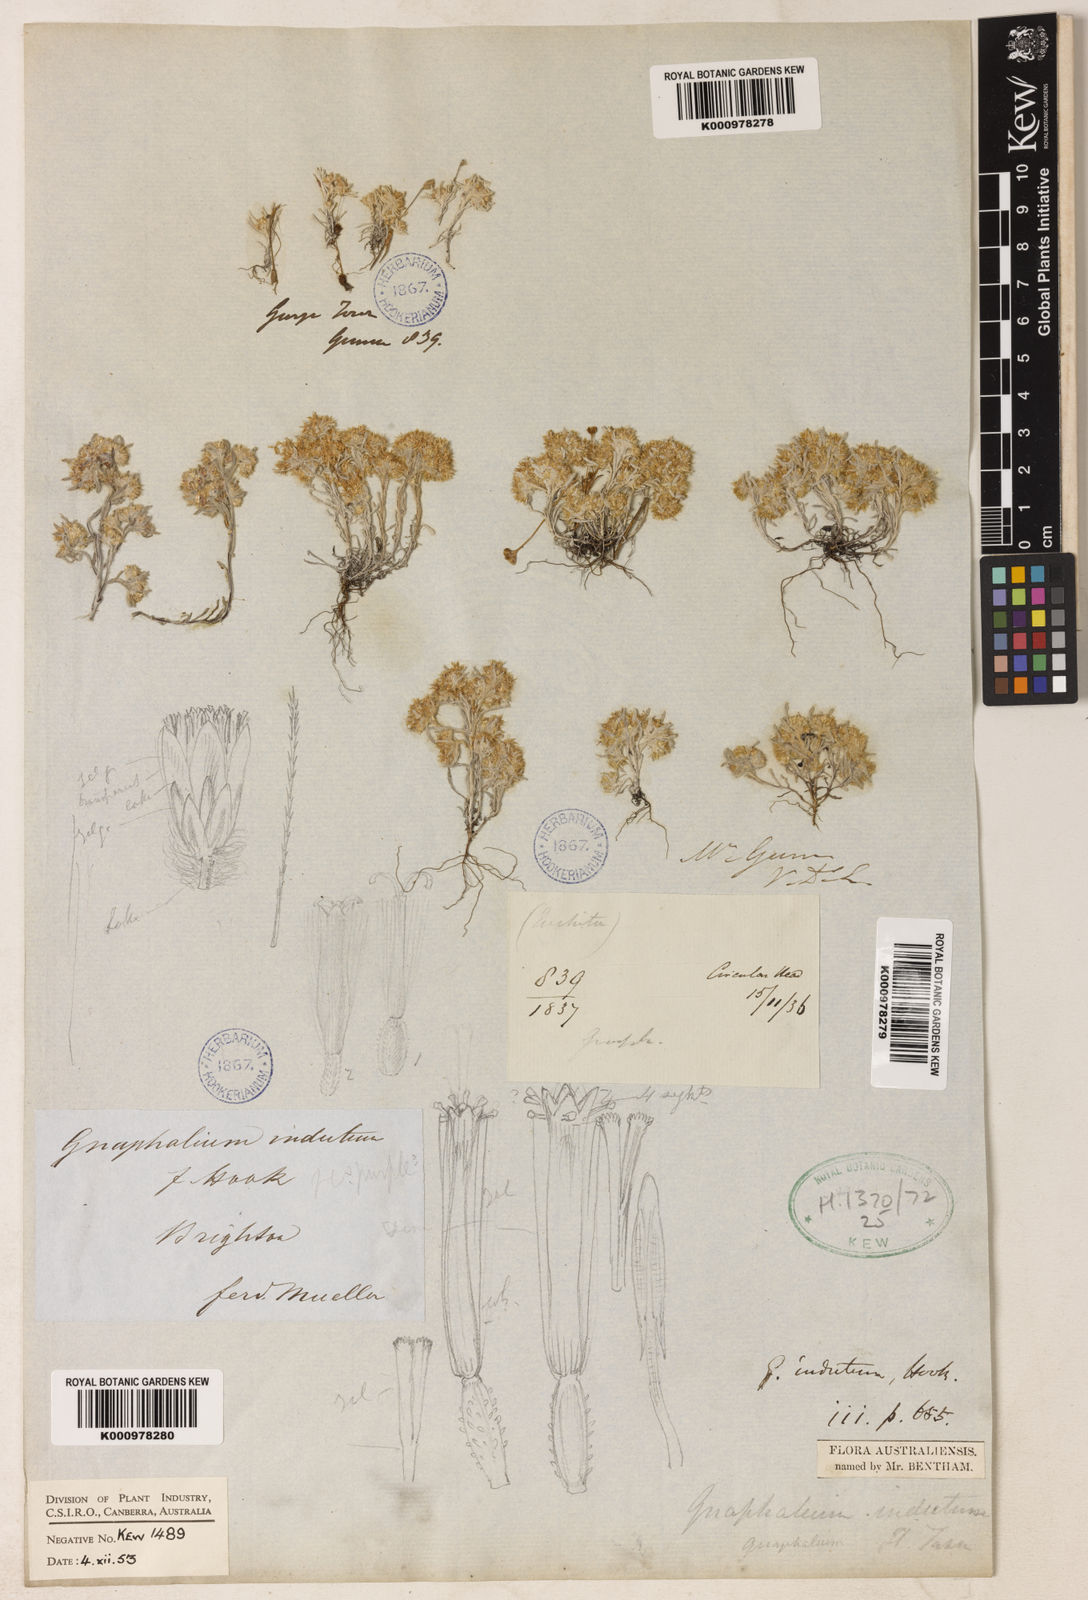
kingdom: Plantae
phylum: Tracheophyta
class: Magnoliopsida
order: Asterales
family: Asteraceae
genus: Gnaphalium
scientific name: Gnaphalium indutum
